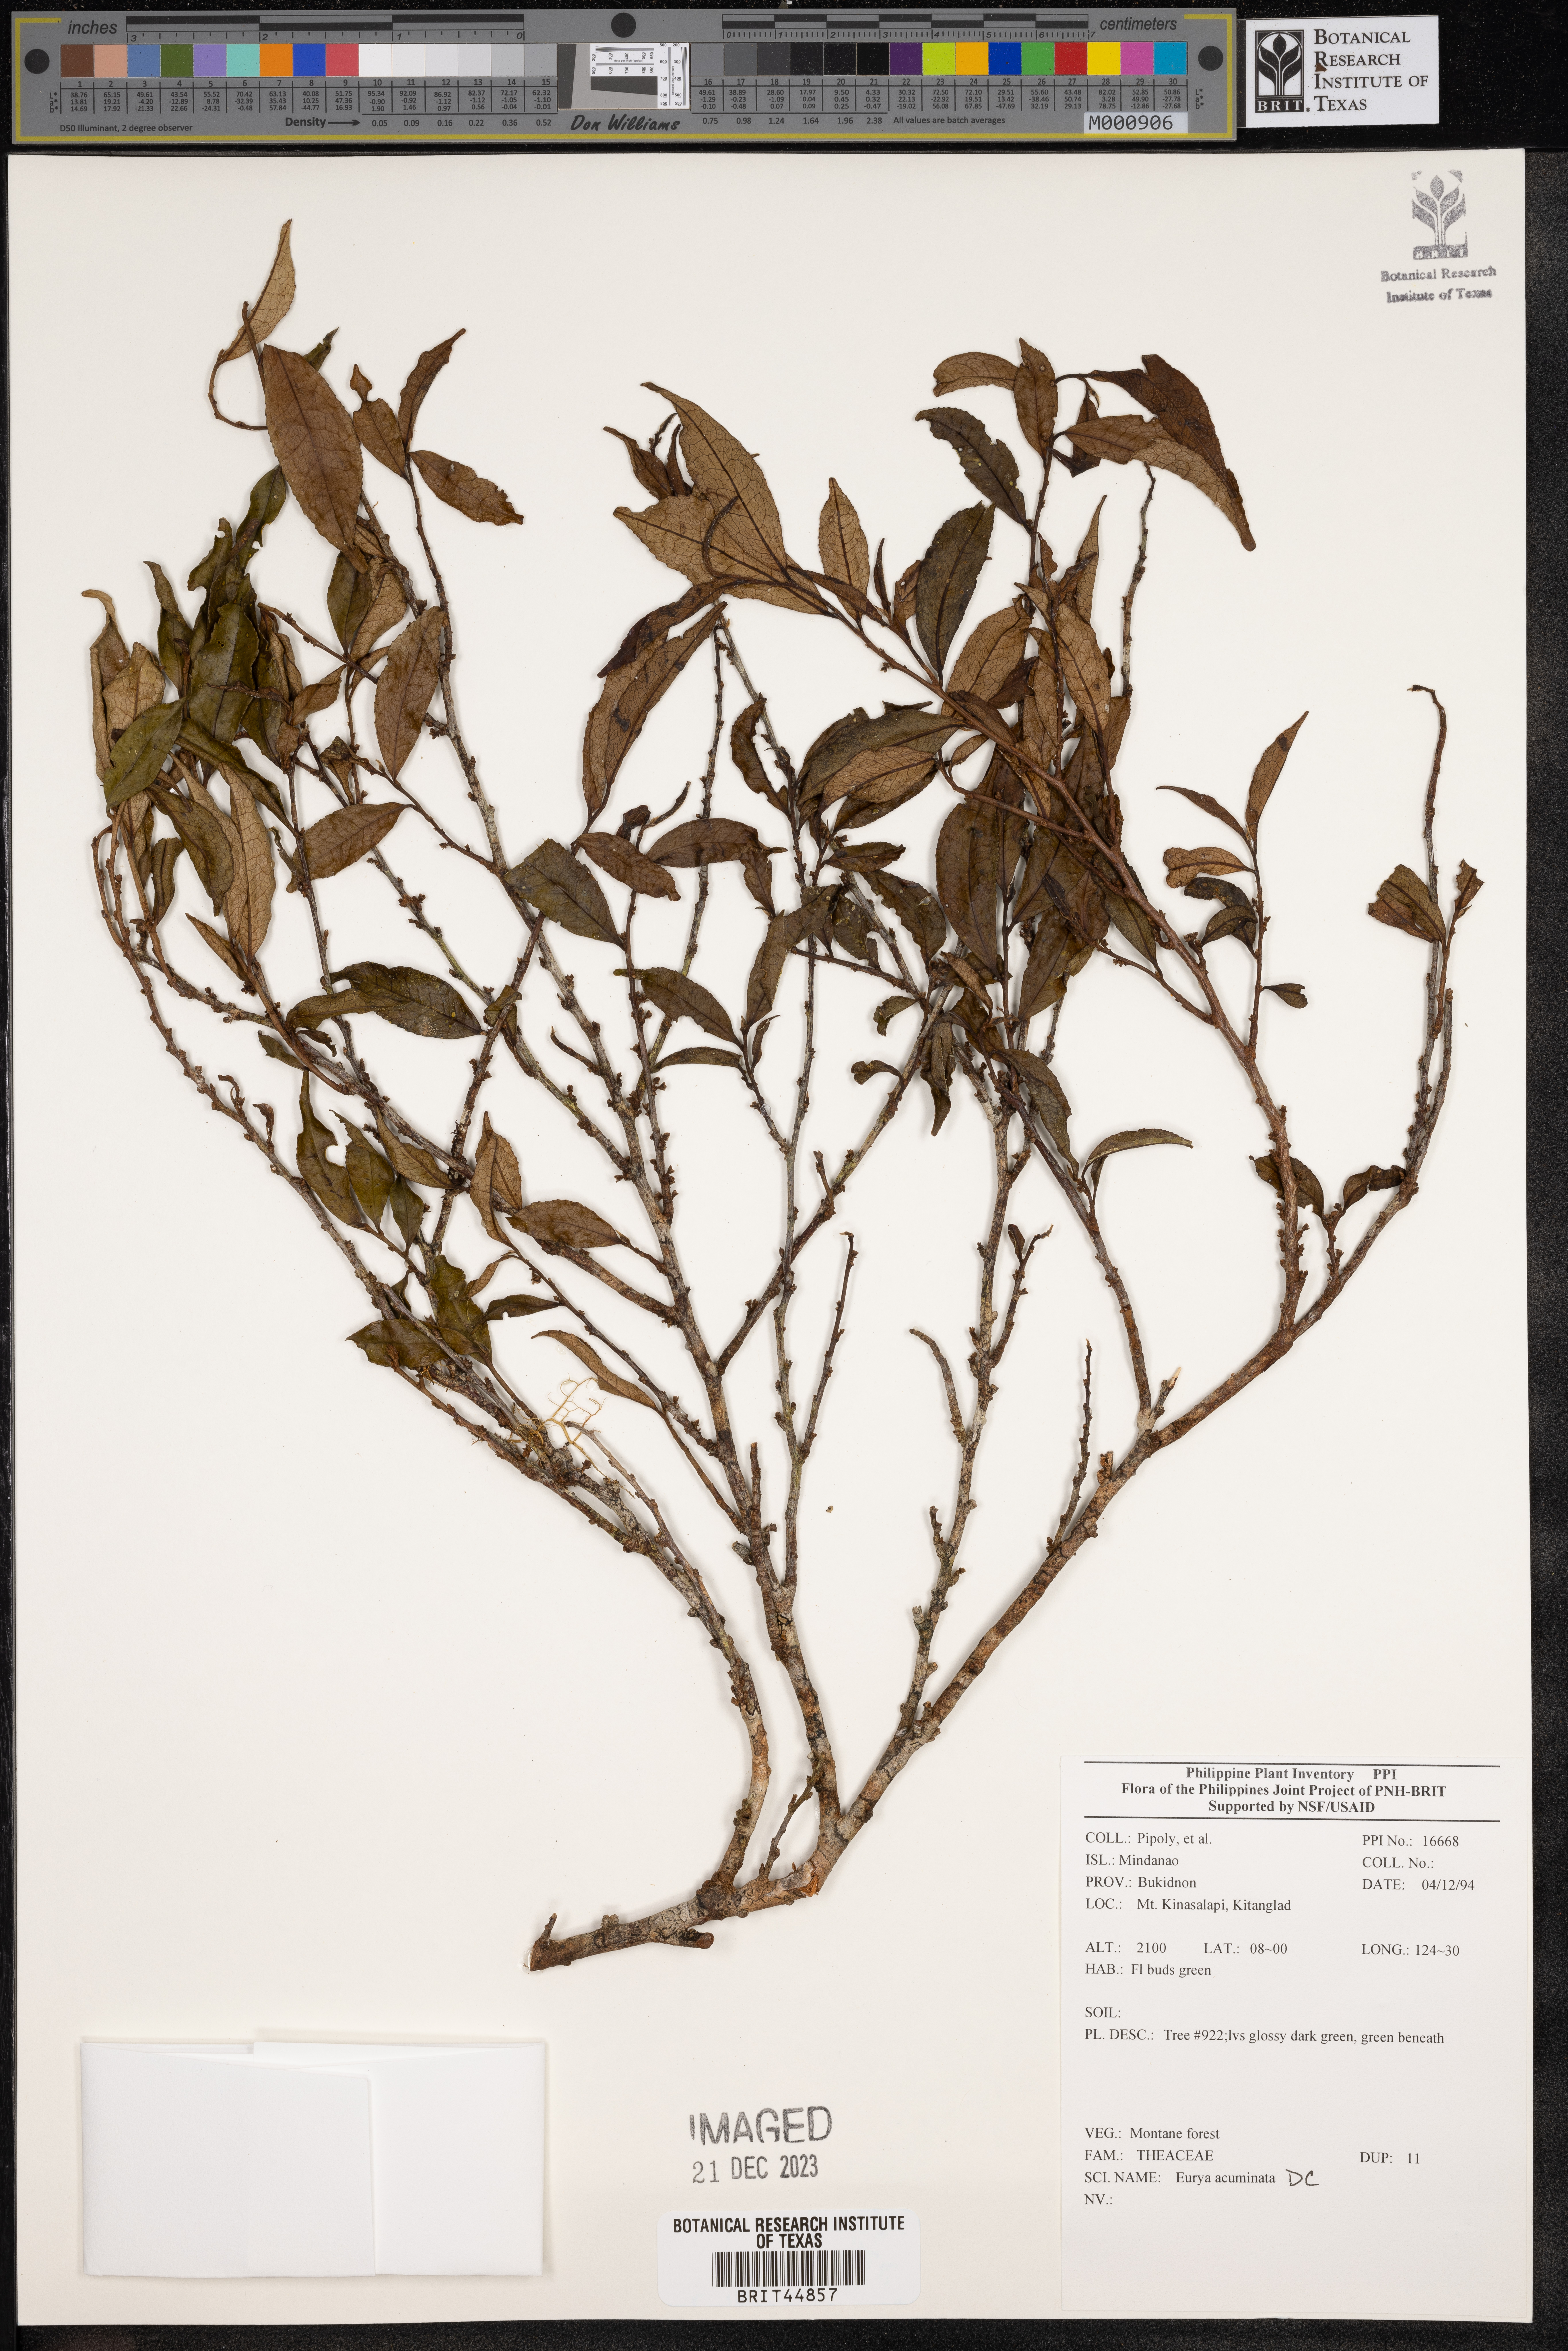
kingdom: Plantae
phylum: Tracheophyta
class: Magnoliopsida
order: Ericales
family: Pentaphylacaceae
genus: Eurya
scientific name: Eurya acuminata
